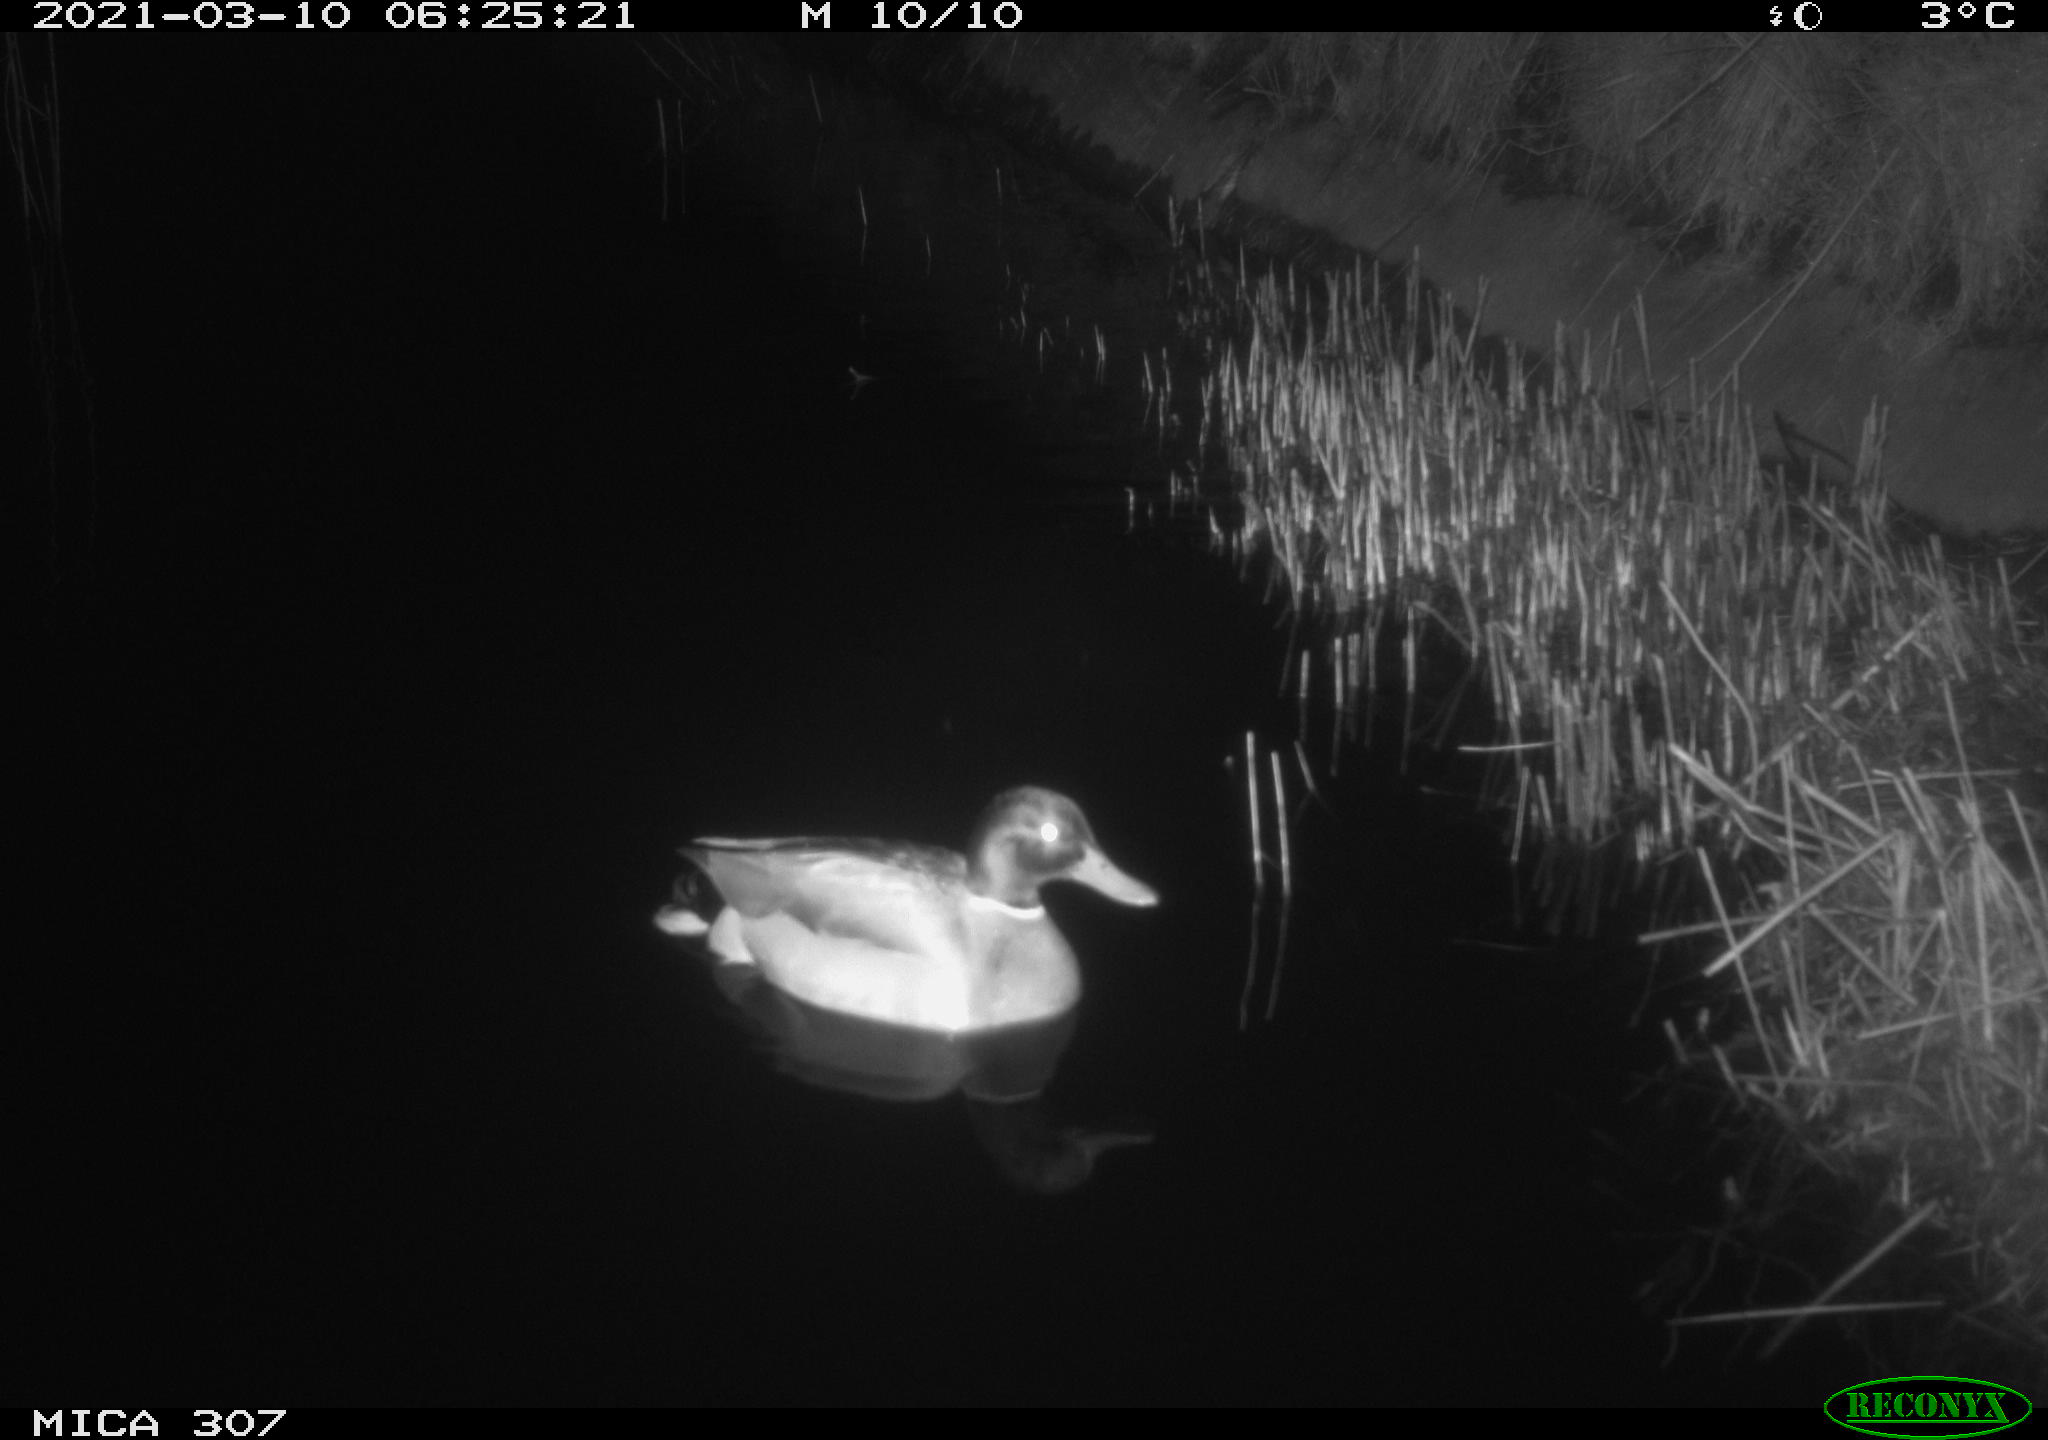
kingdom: Animalia
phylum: Chordata
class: Aves
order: Anseriformes
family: Anatidae
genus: Anas
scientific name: Anas platyrhynchos
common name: Mallard
